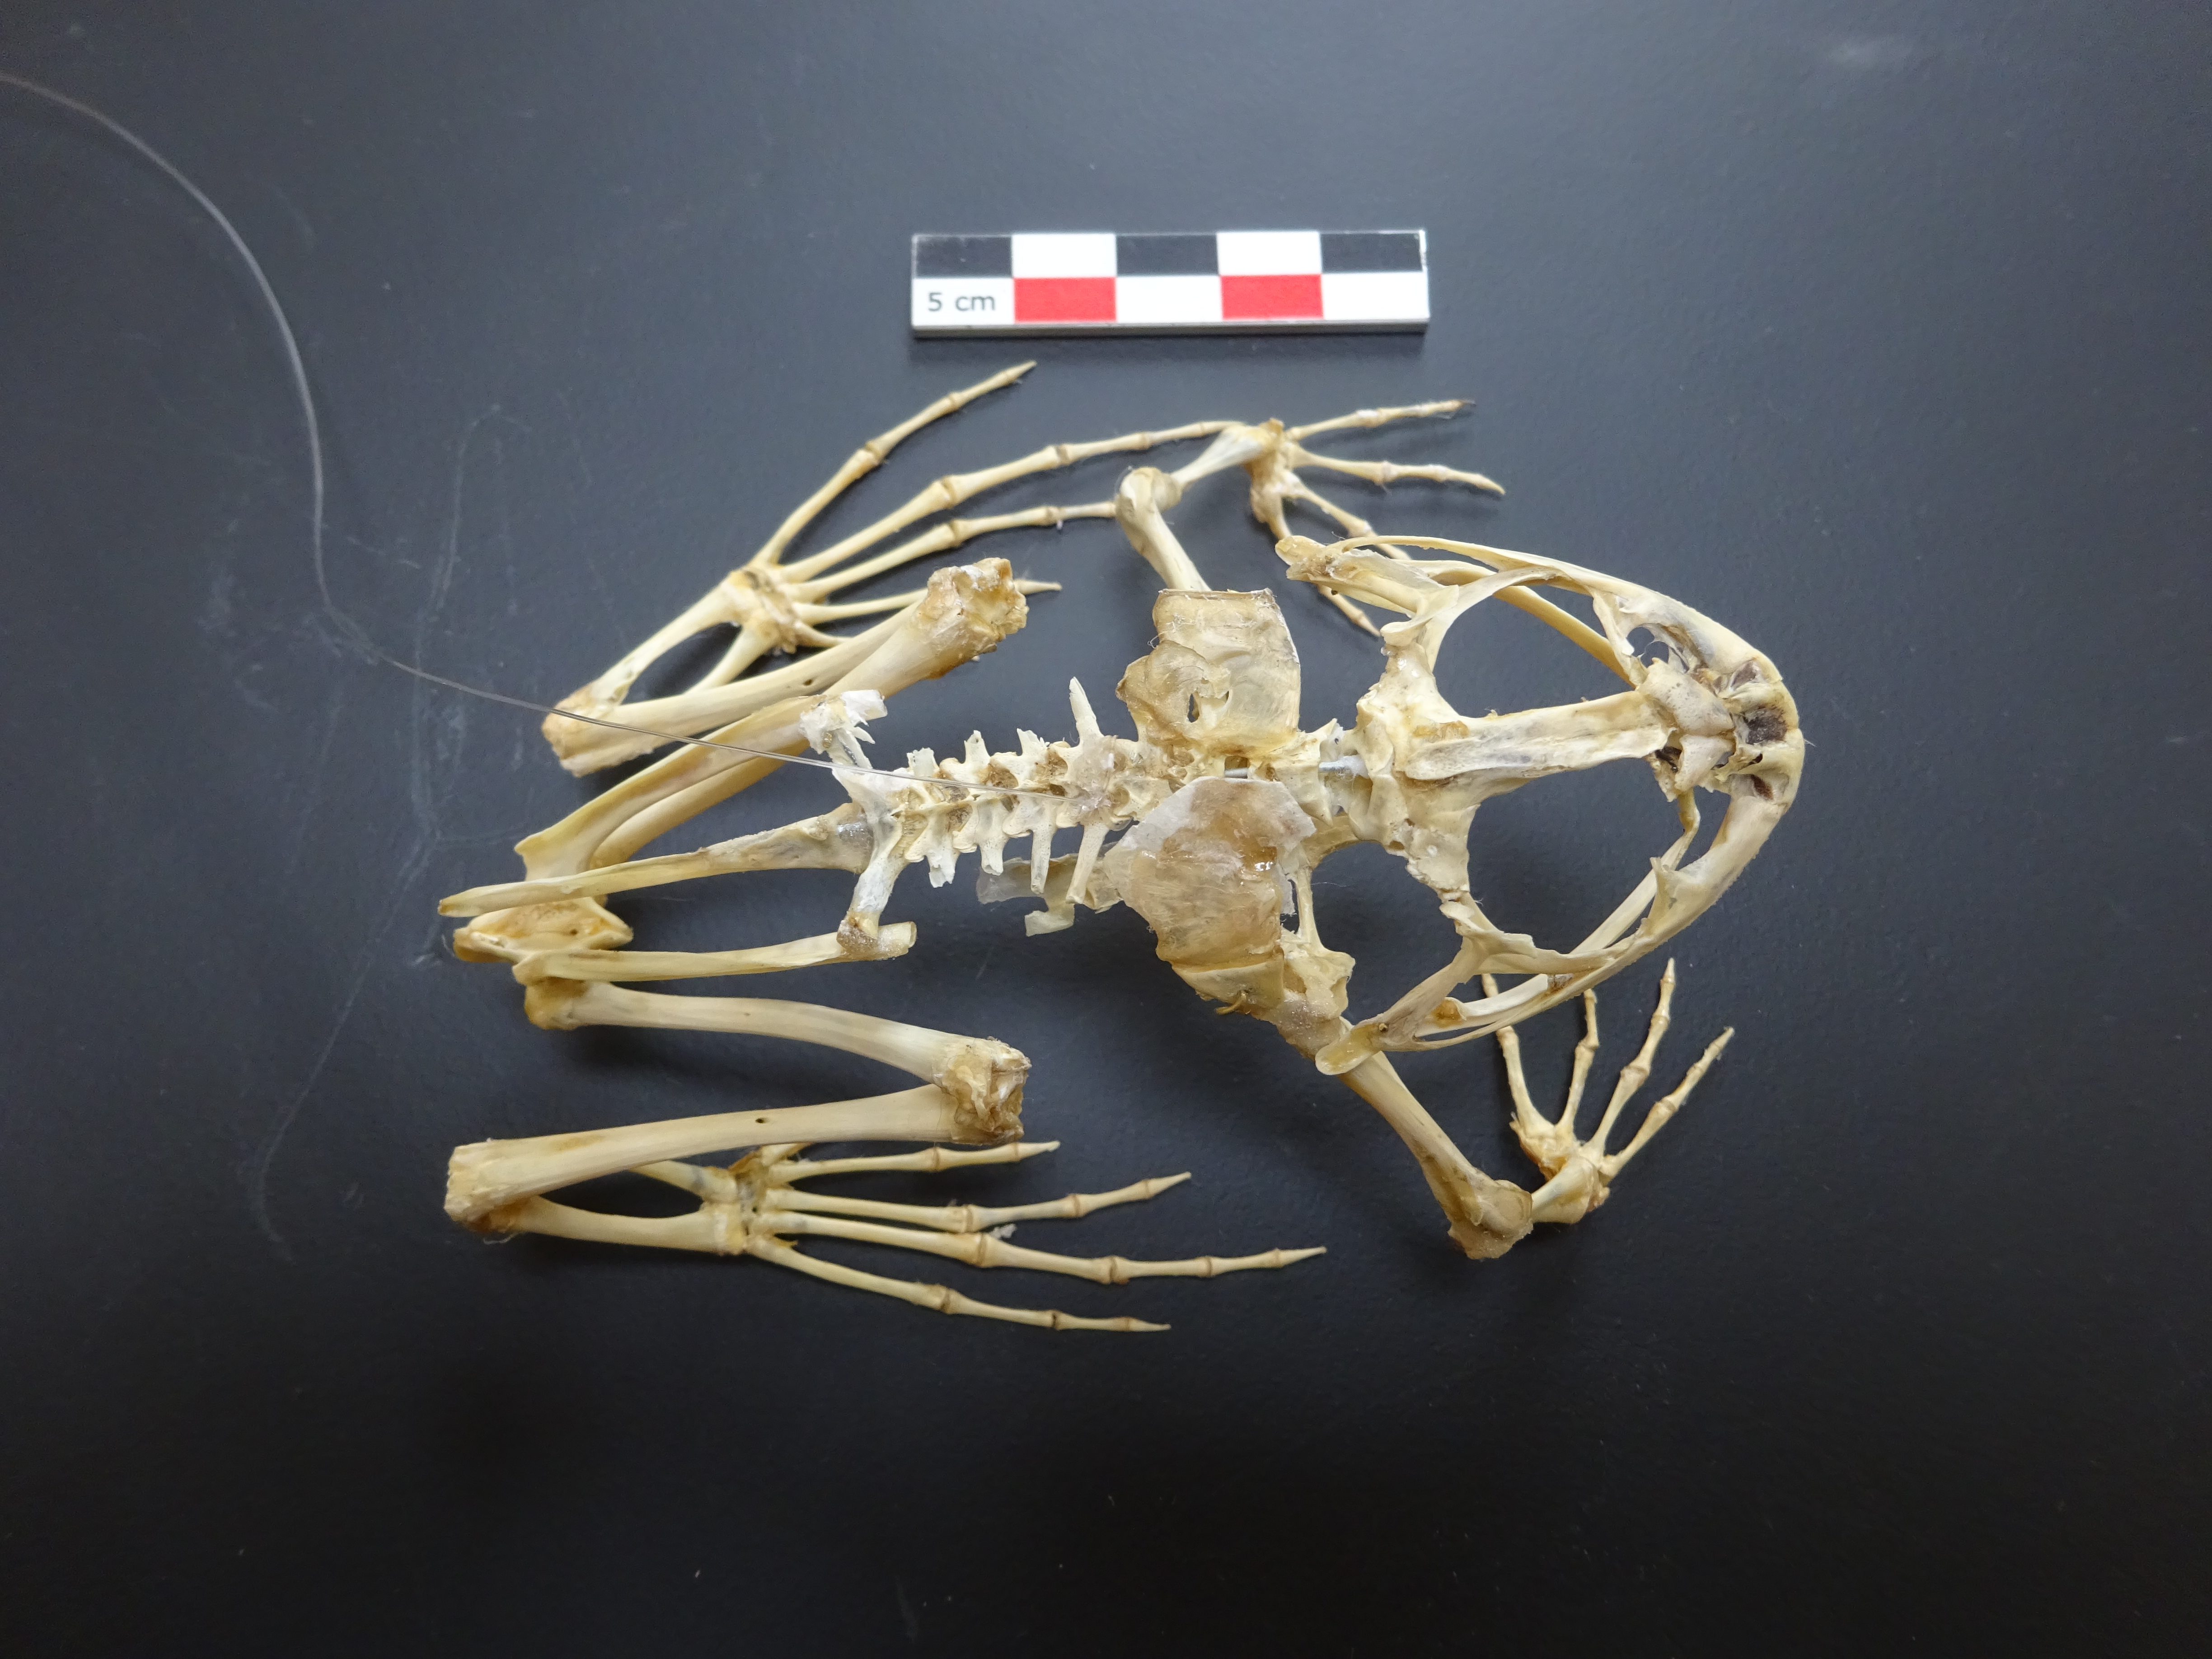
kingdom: Animalia
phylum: Chordata
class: Amphibia
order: Anura
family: Ranidae
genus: Pelophylax
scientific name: Pelophylax lessonae
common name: Pool frog
